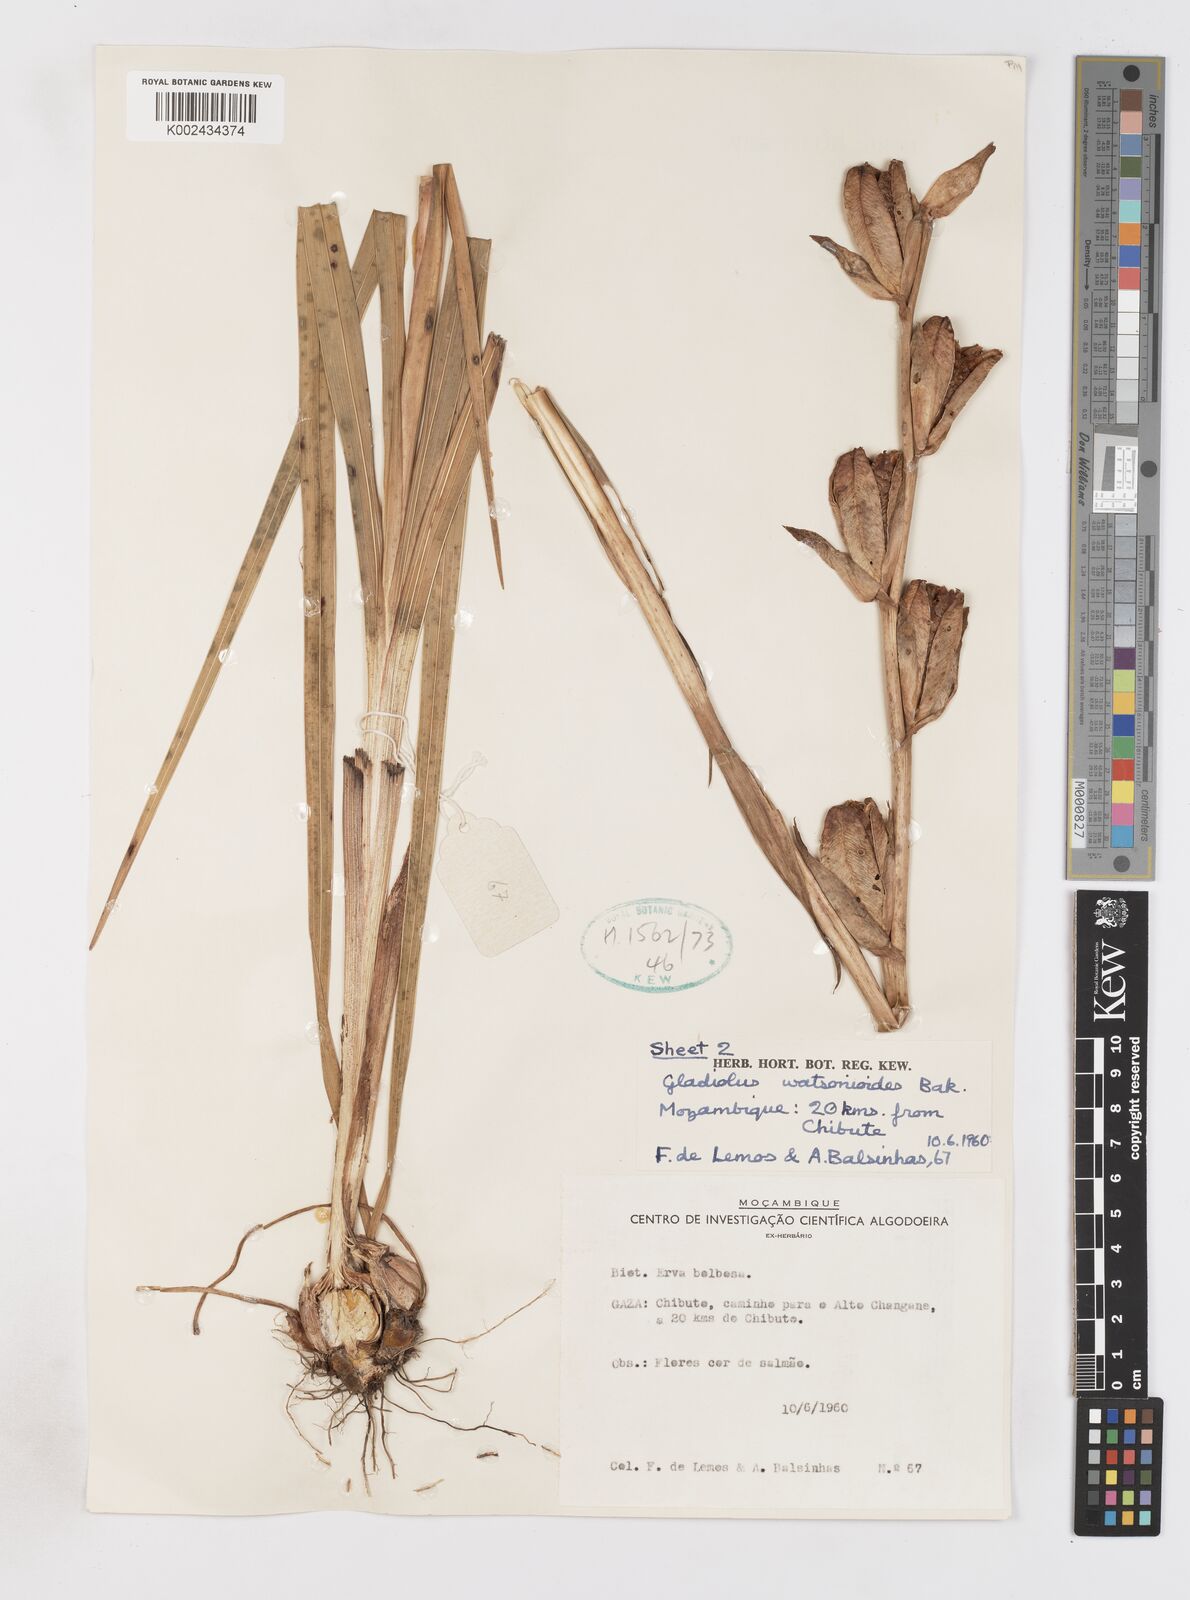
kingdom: Plantae
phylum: Tracheophyta
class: Liliopsida
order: Asparagales
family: Iridaceae
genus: Gladiolus
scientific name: Gladiolus dalenii
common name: Cornflag
